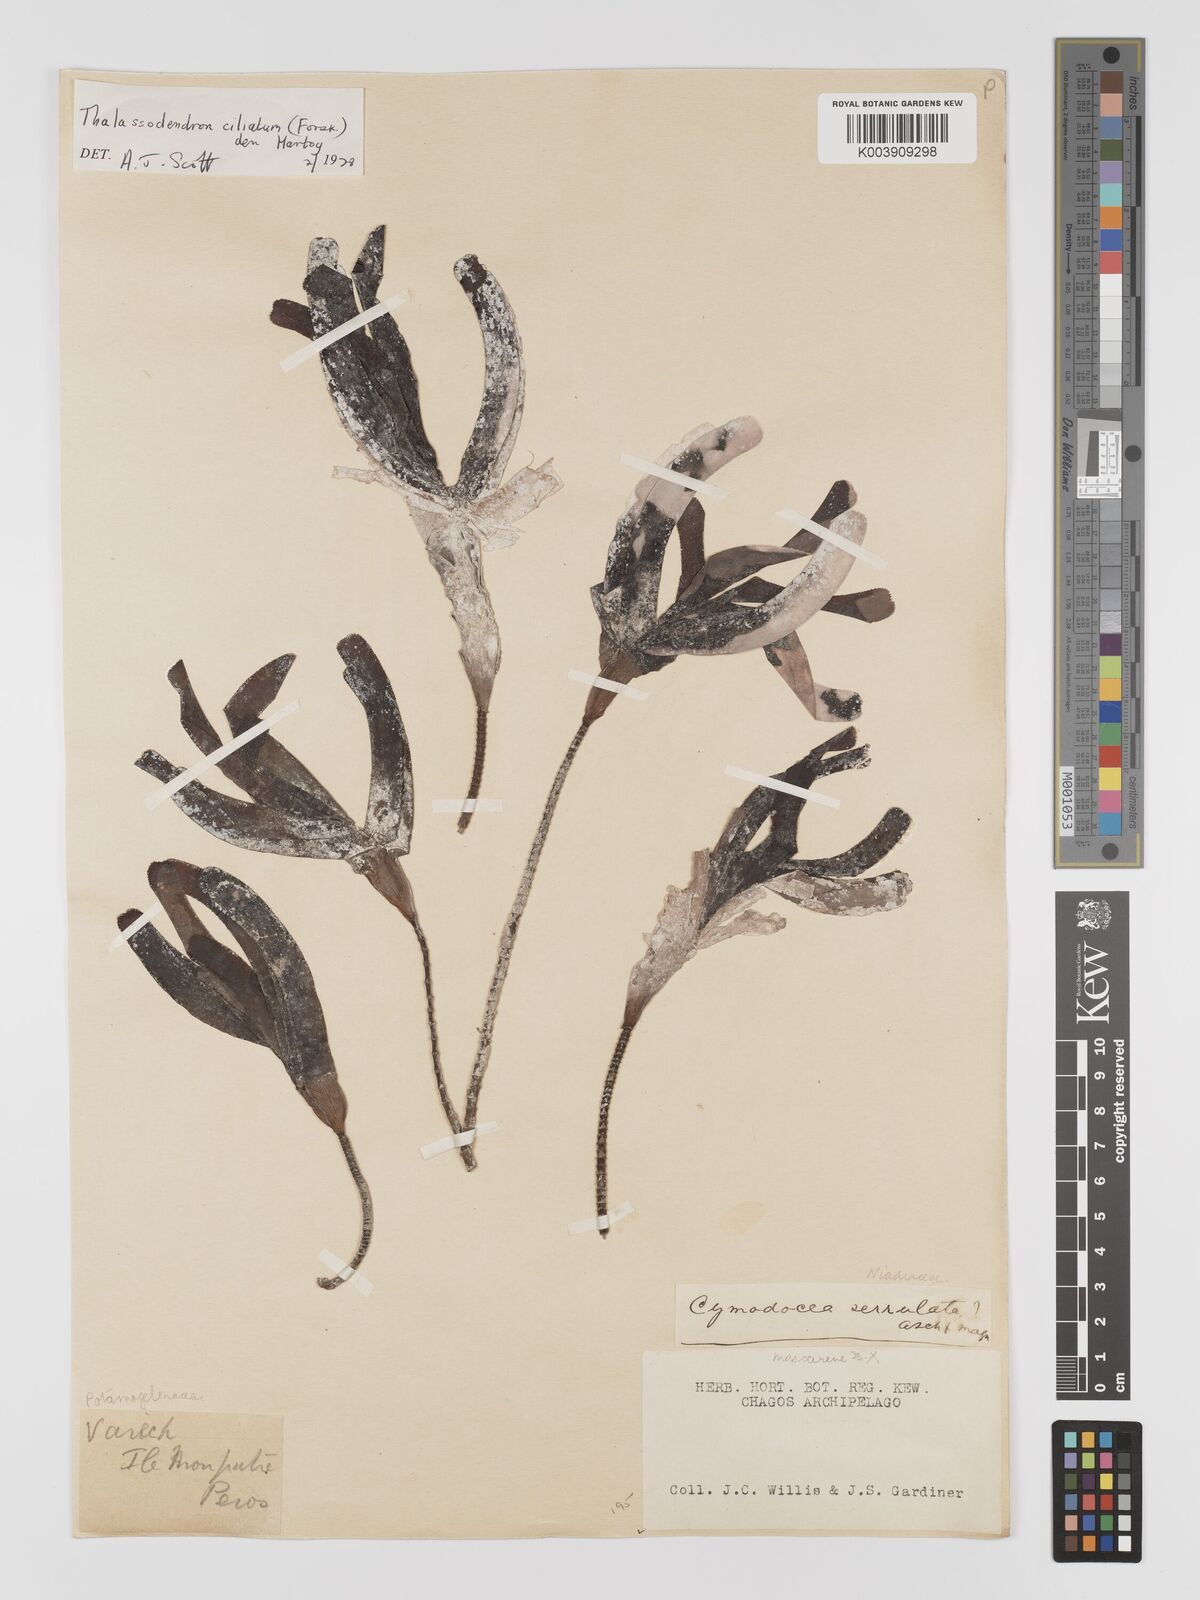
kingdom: Plantae
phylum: Tracheophyta
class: Liliopsida
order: Alismatales
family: Cymodoceaceae
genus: Thalassodendron
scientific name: Thalassodendron ciliatum
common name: Species code: tc
